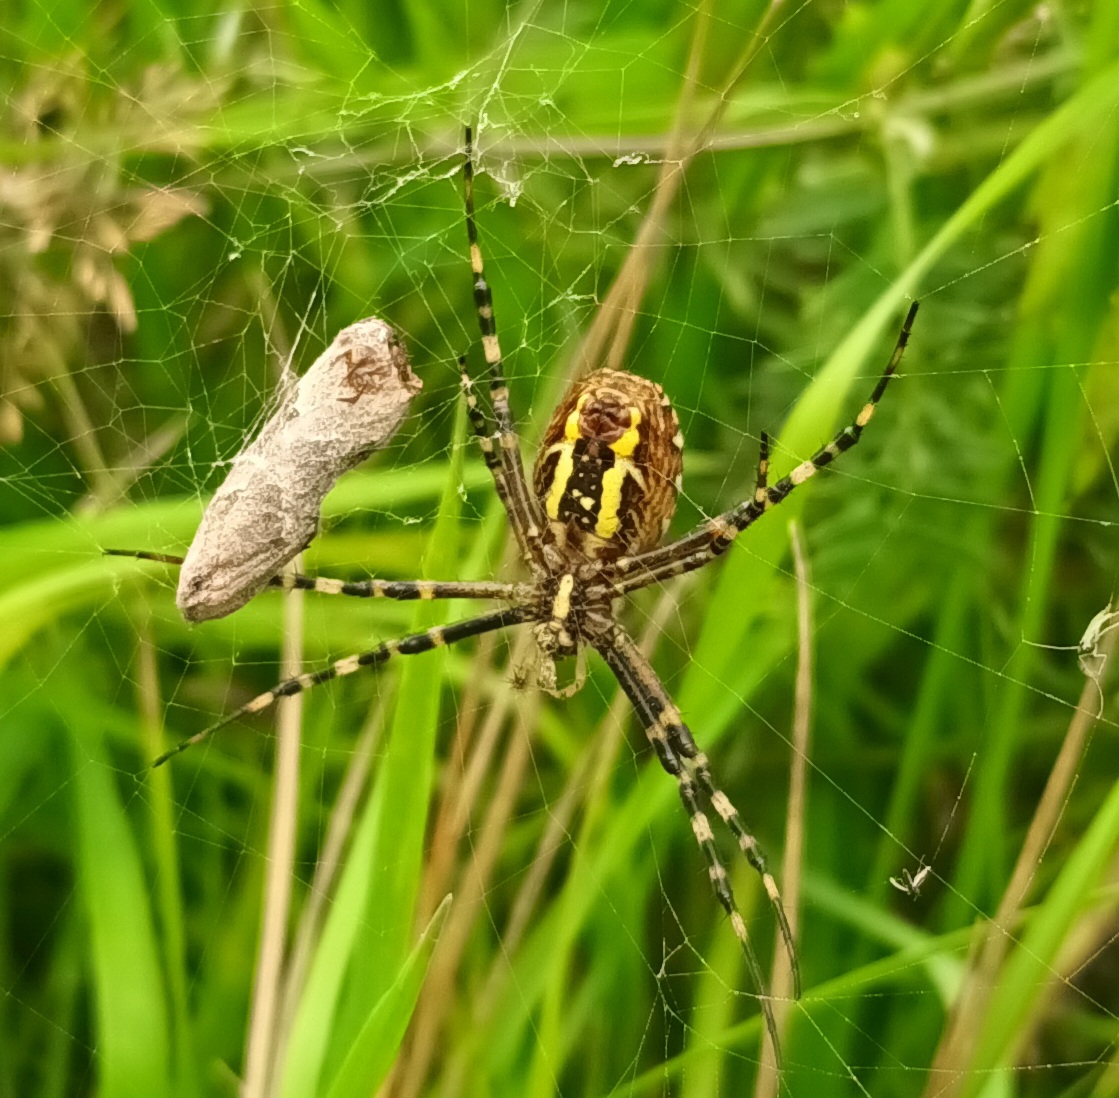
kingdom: Animalia
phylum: Arthropoda
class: Arachnida
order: Araneae
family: Araneidae
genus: Argiope
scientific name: Argiope bruennichi
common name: Hvepseedderkop
